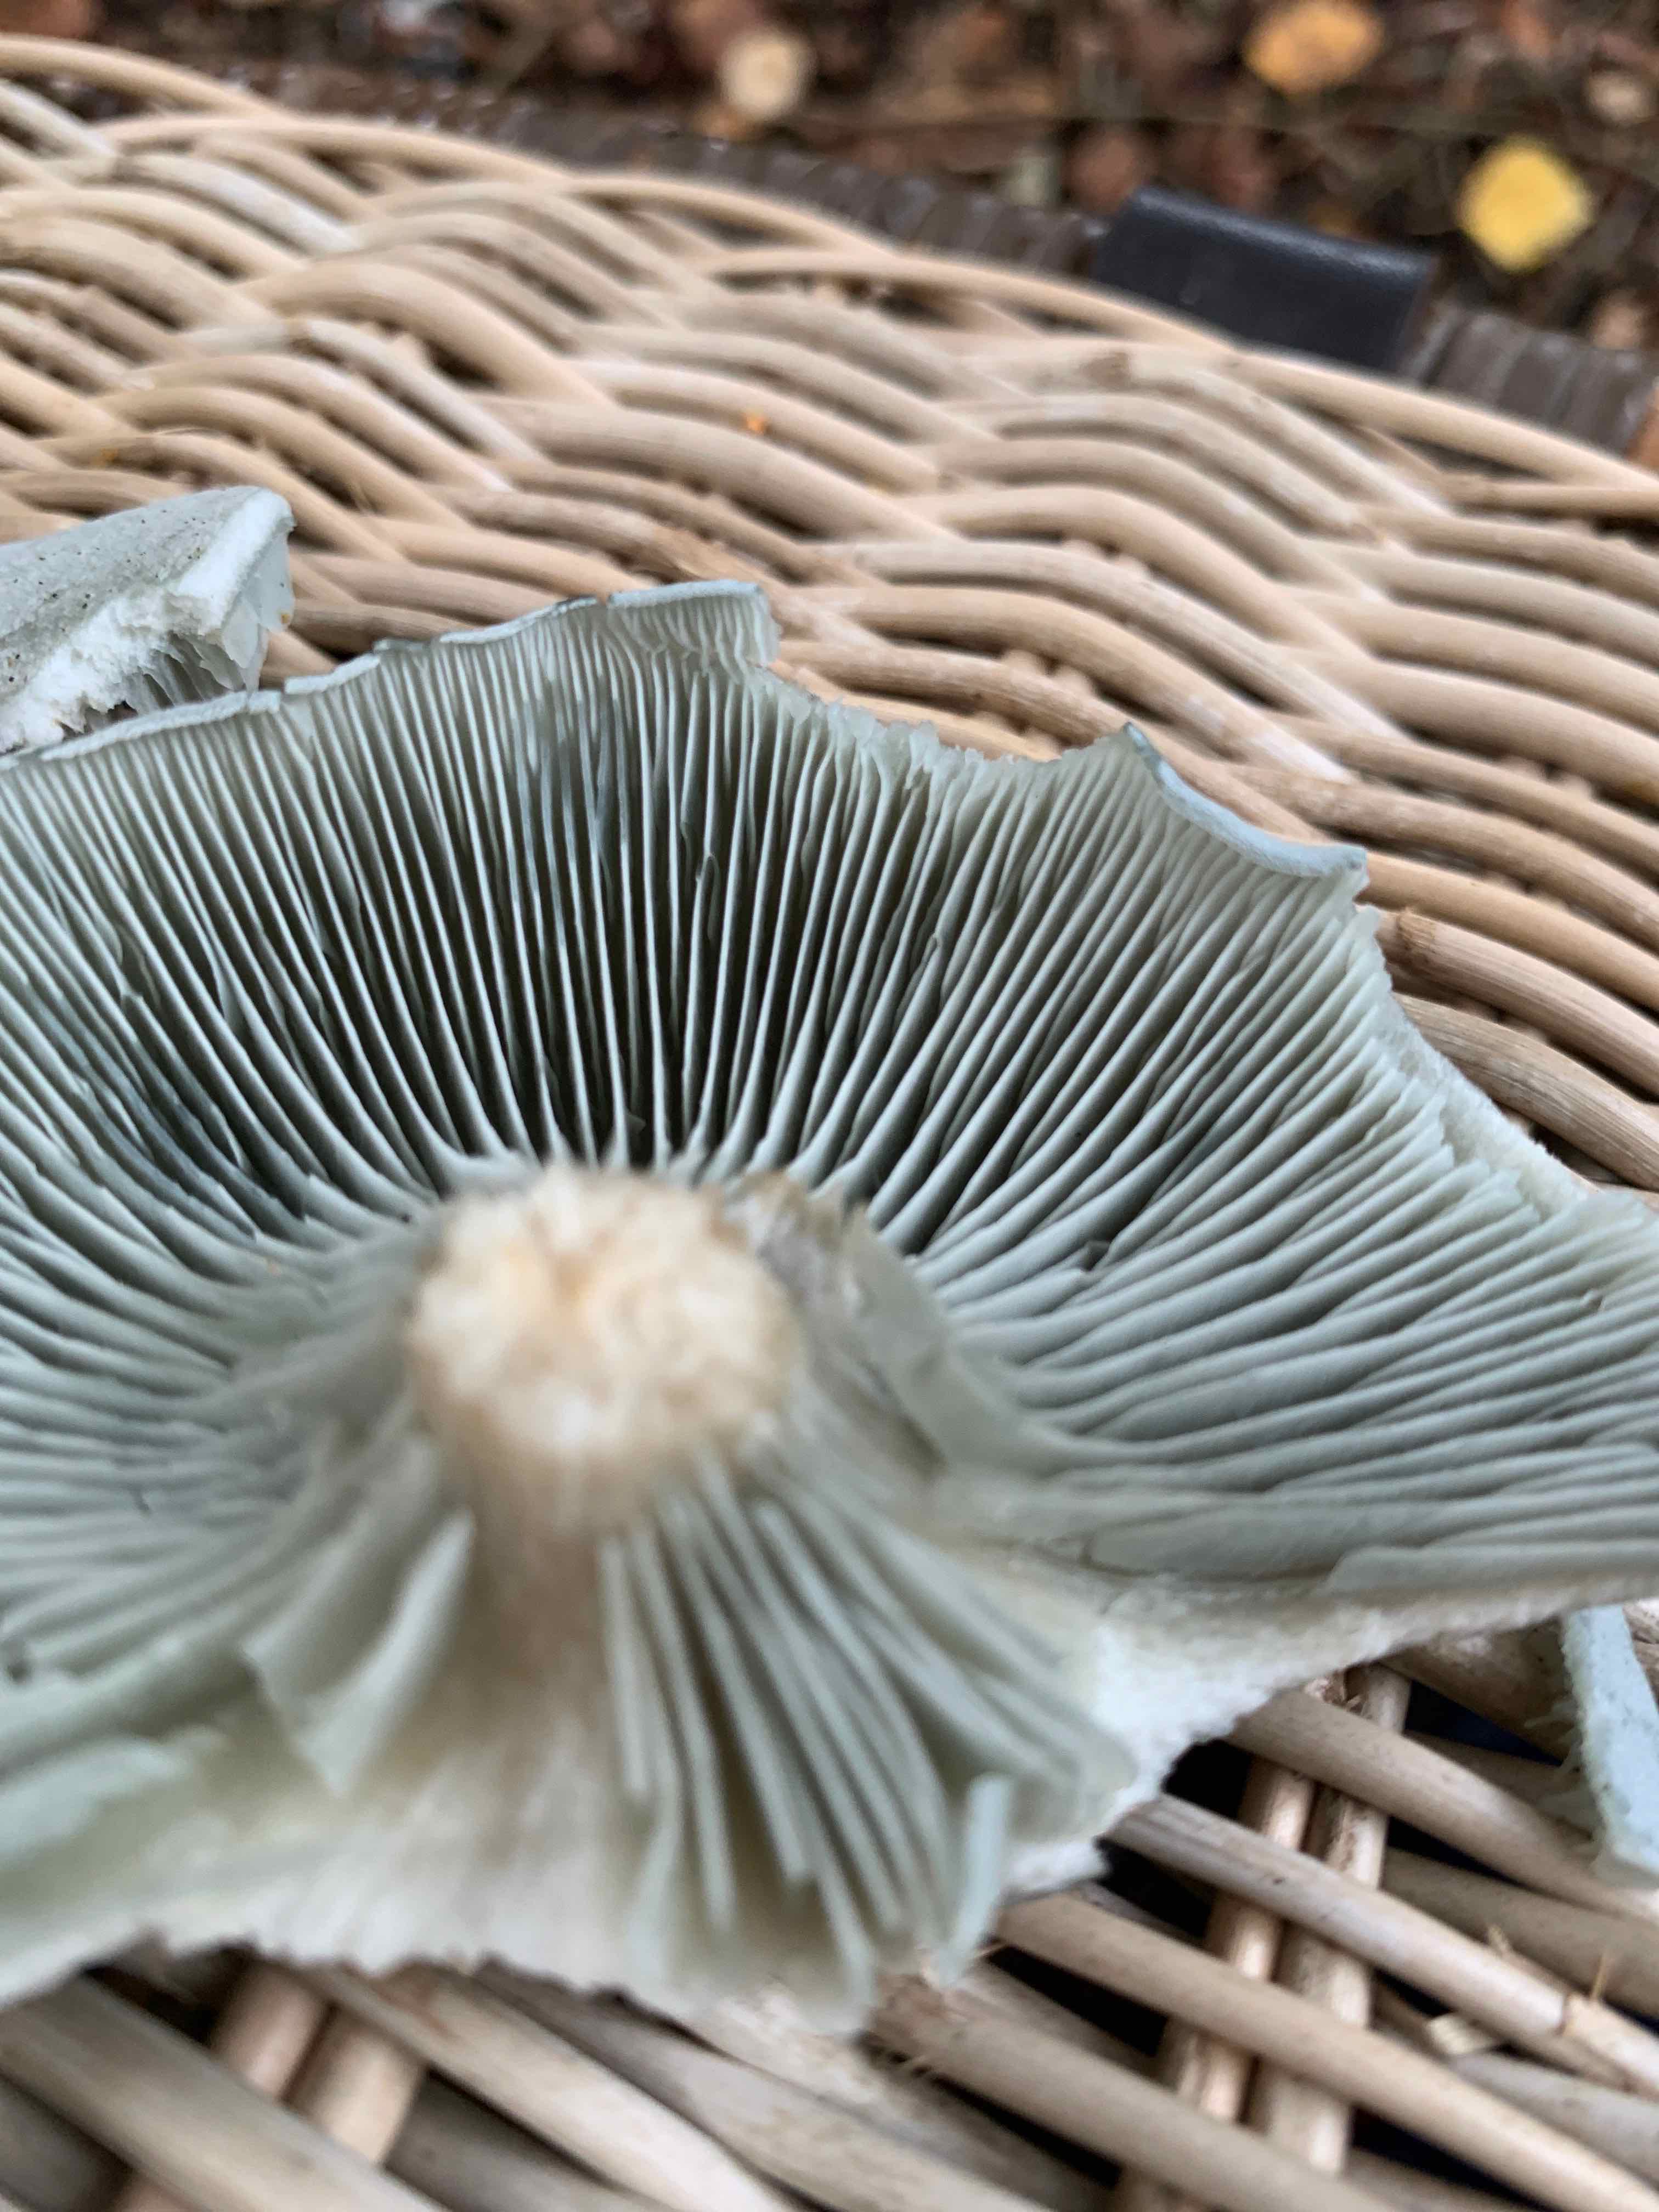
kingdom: Fungi
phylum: Basidiomycota
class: Agaricomycetes
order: Agaricales
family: Tricholomataceae
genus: Clitocybe
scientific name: Clitocybe odora
